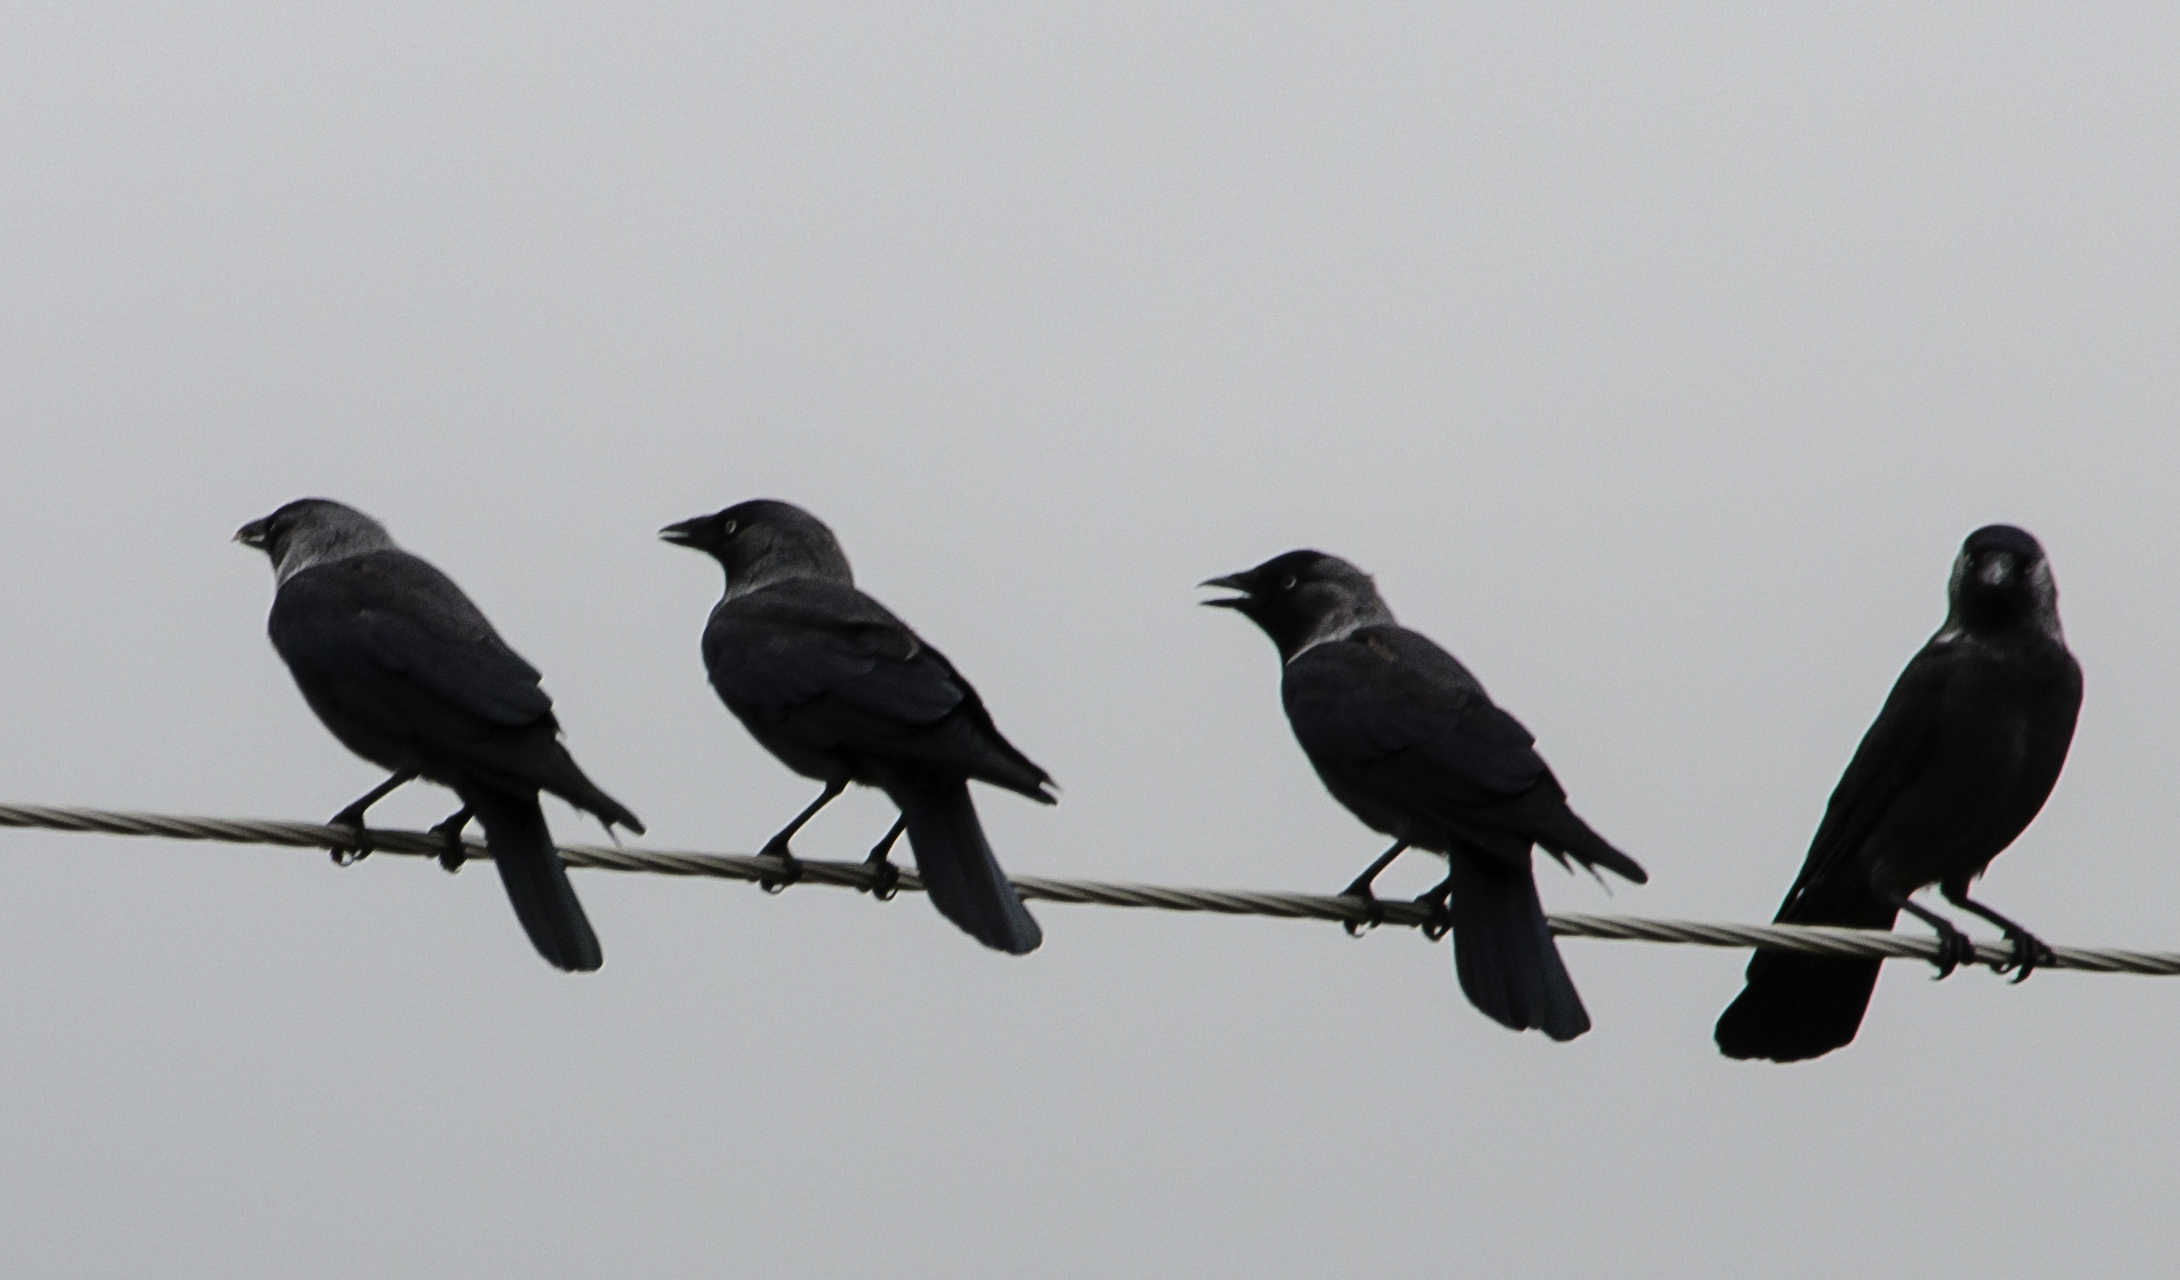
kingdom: Animalia
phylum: Chordata
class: Aves
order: Passeriformes
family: Corvidae
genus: Coloeus
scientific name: Coloeus monedula
